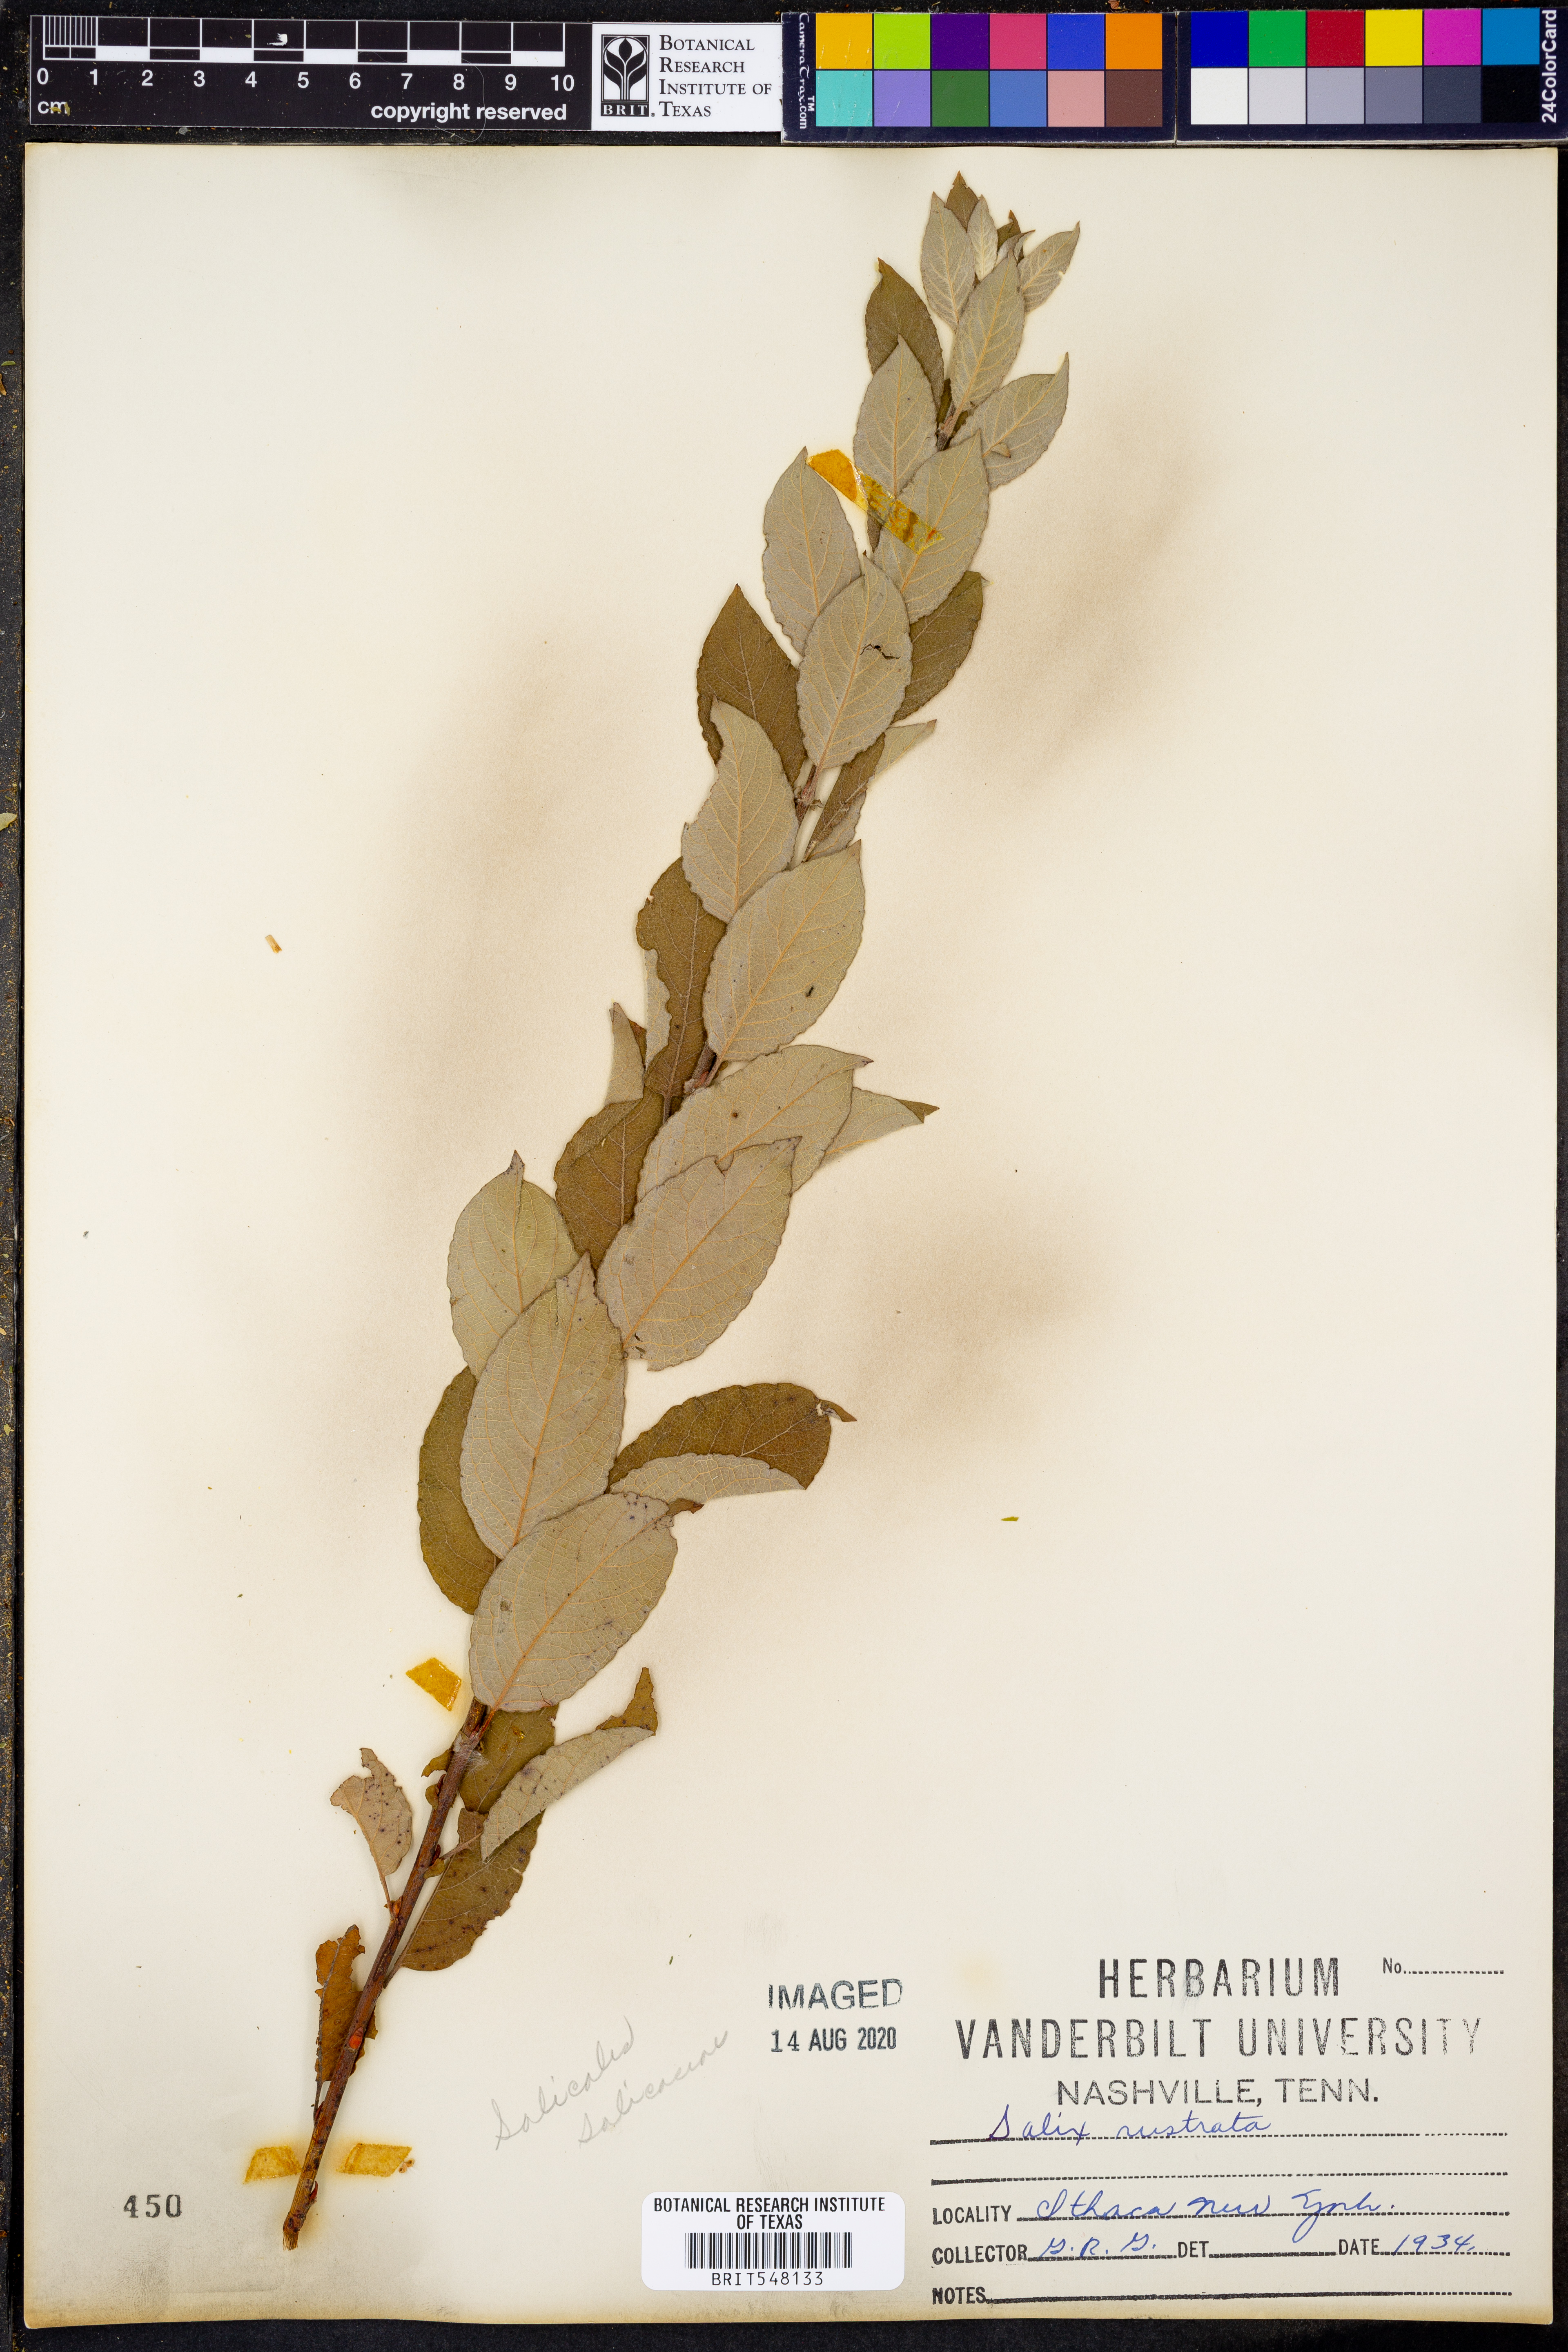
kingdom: Plantae
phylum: Tracheophyta
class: Magnoliopsida
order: Malpighiales
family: Salicaceae
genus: Salix
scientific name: Salix bebbiana
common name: Bebb's willow
